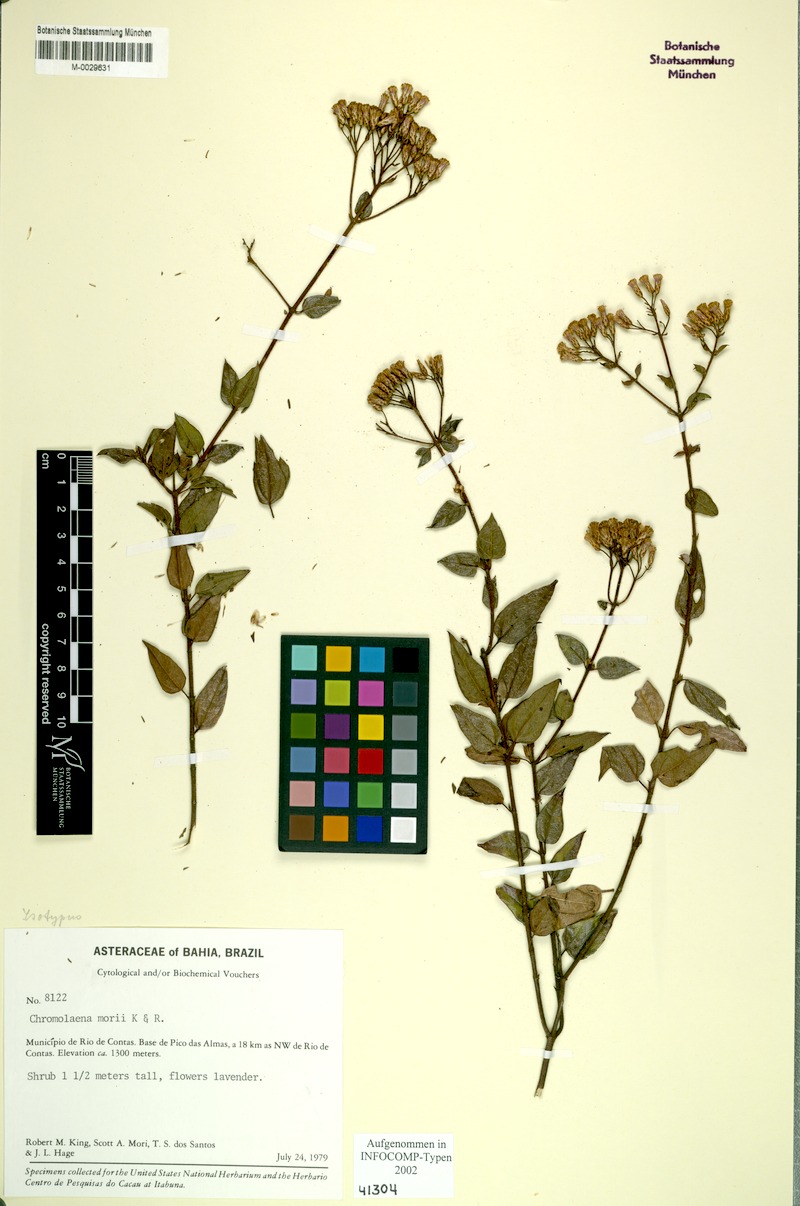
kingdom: Plantae
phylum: Tracheophyta
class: Magnoliopsida
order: Asterales
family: Asteraceae
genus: Chromolaena
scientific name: Chromolaena morii
